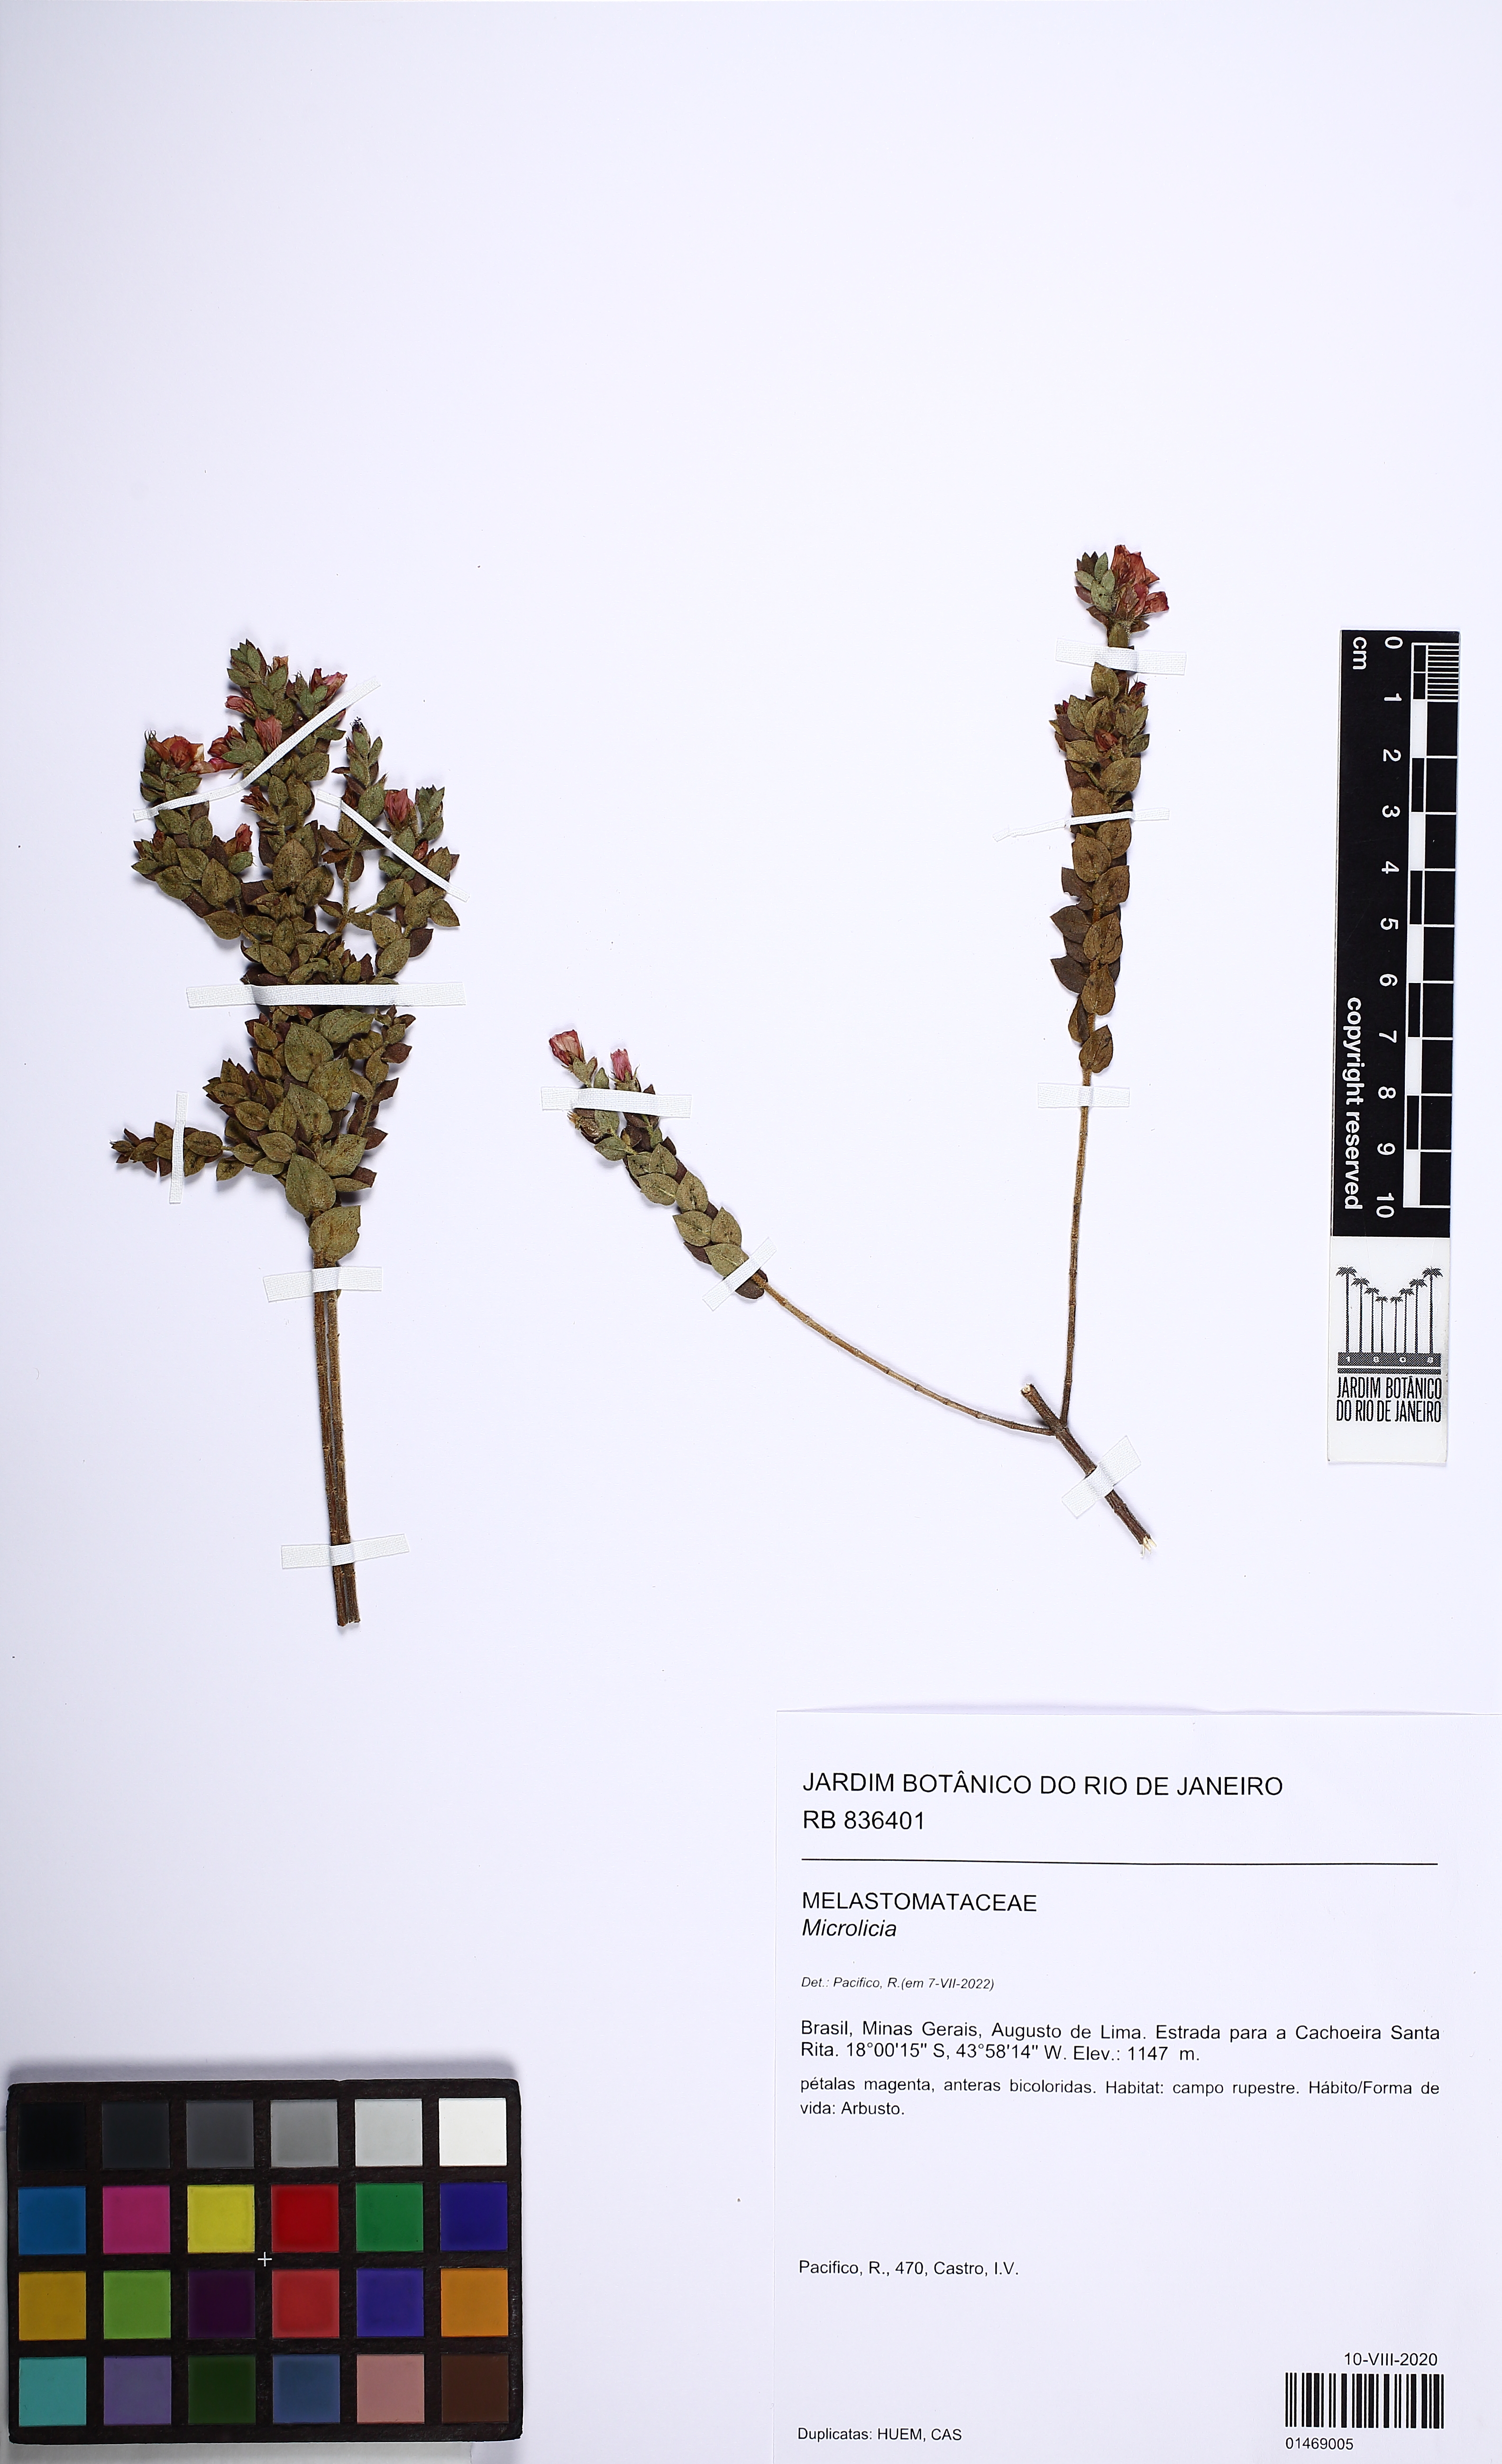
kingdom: Plantae
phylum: Tracheophyta
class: Magnoliopsida
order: Myrtales
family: Melastomataceae
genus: Microlicia
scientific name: Microlicia
